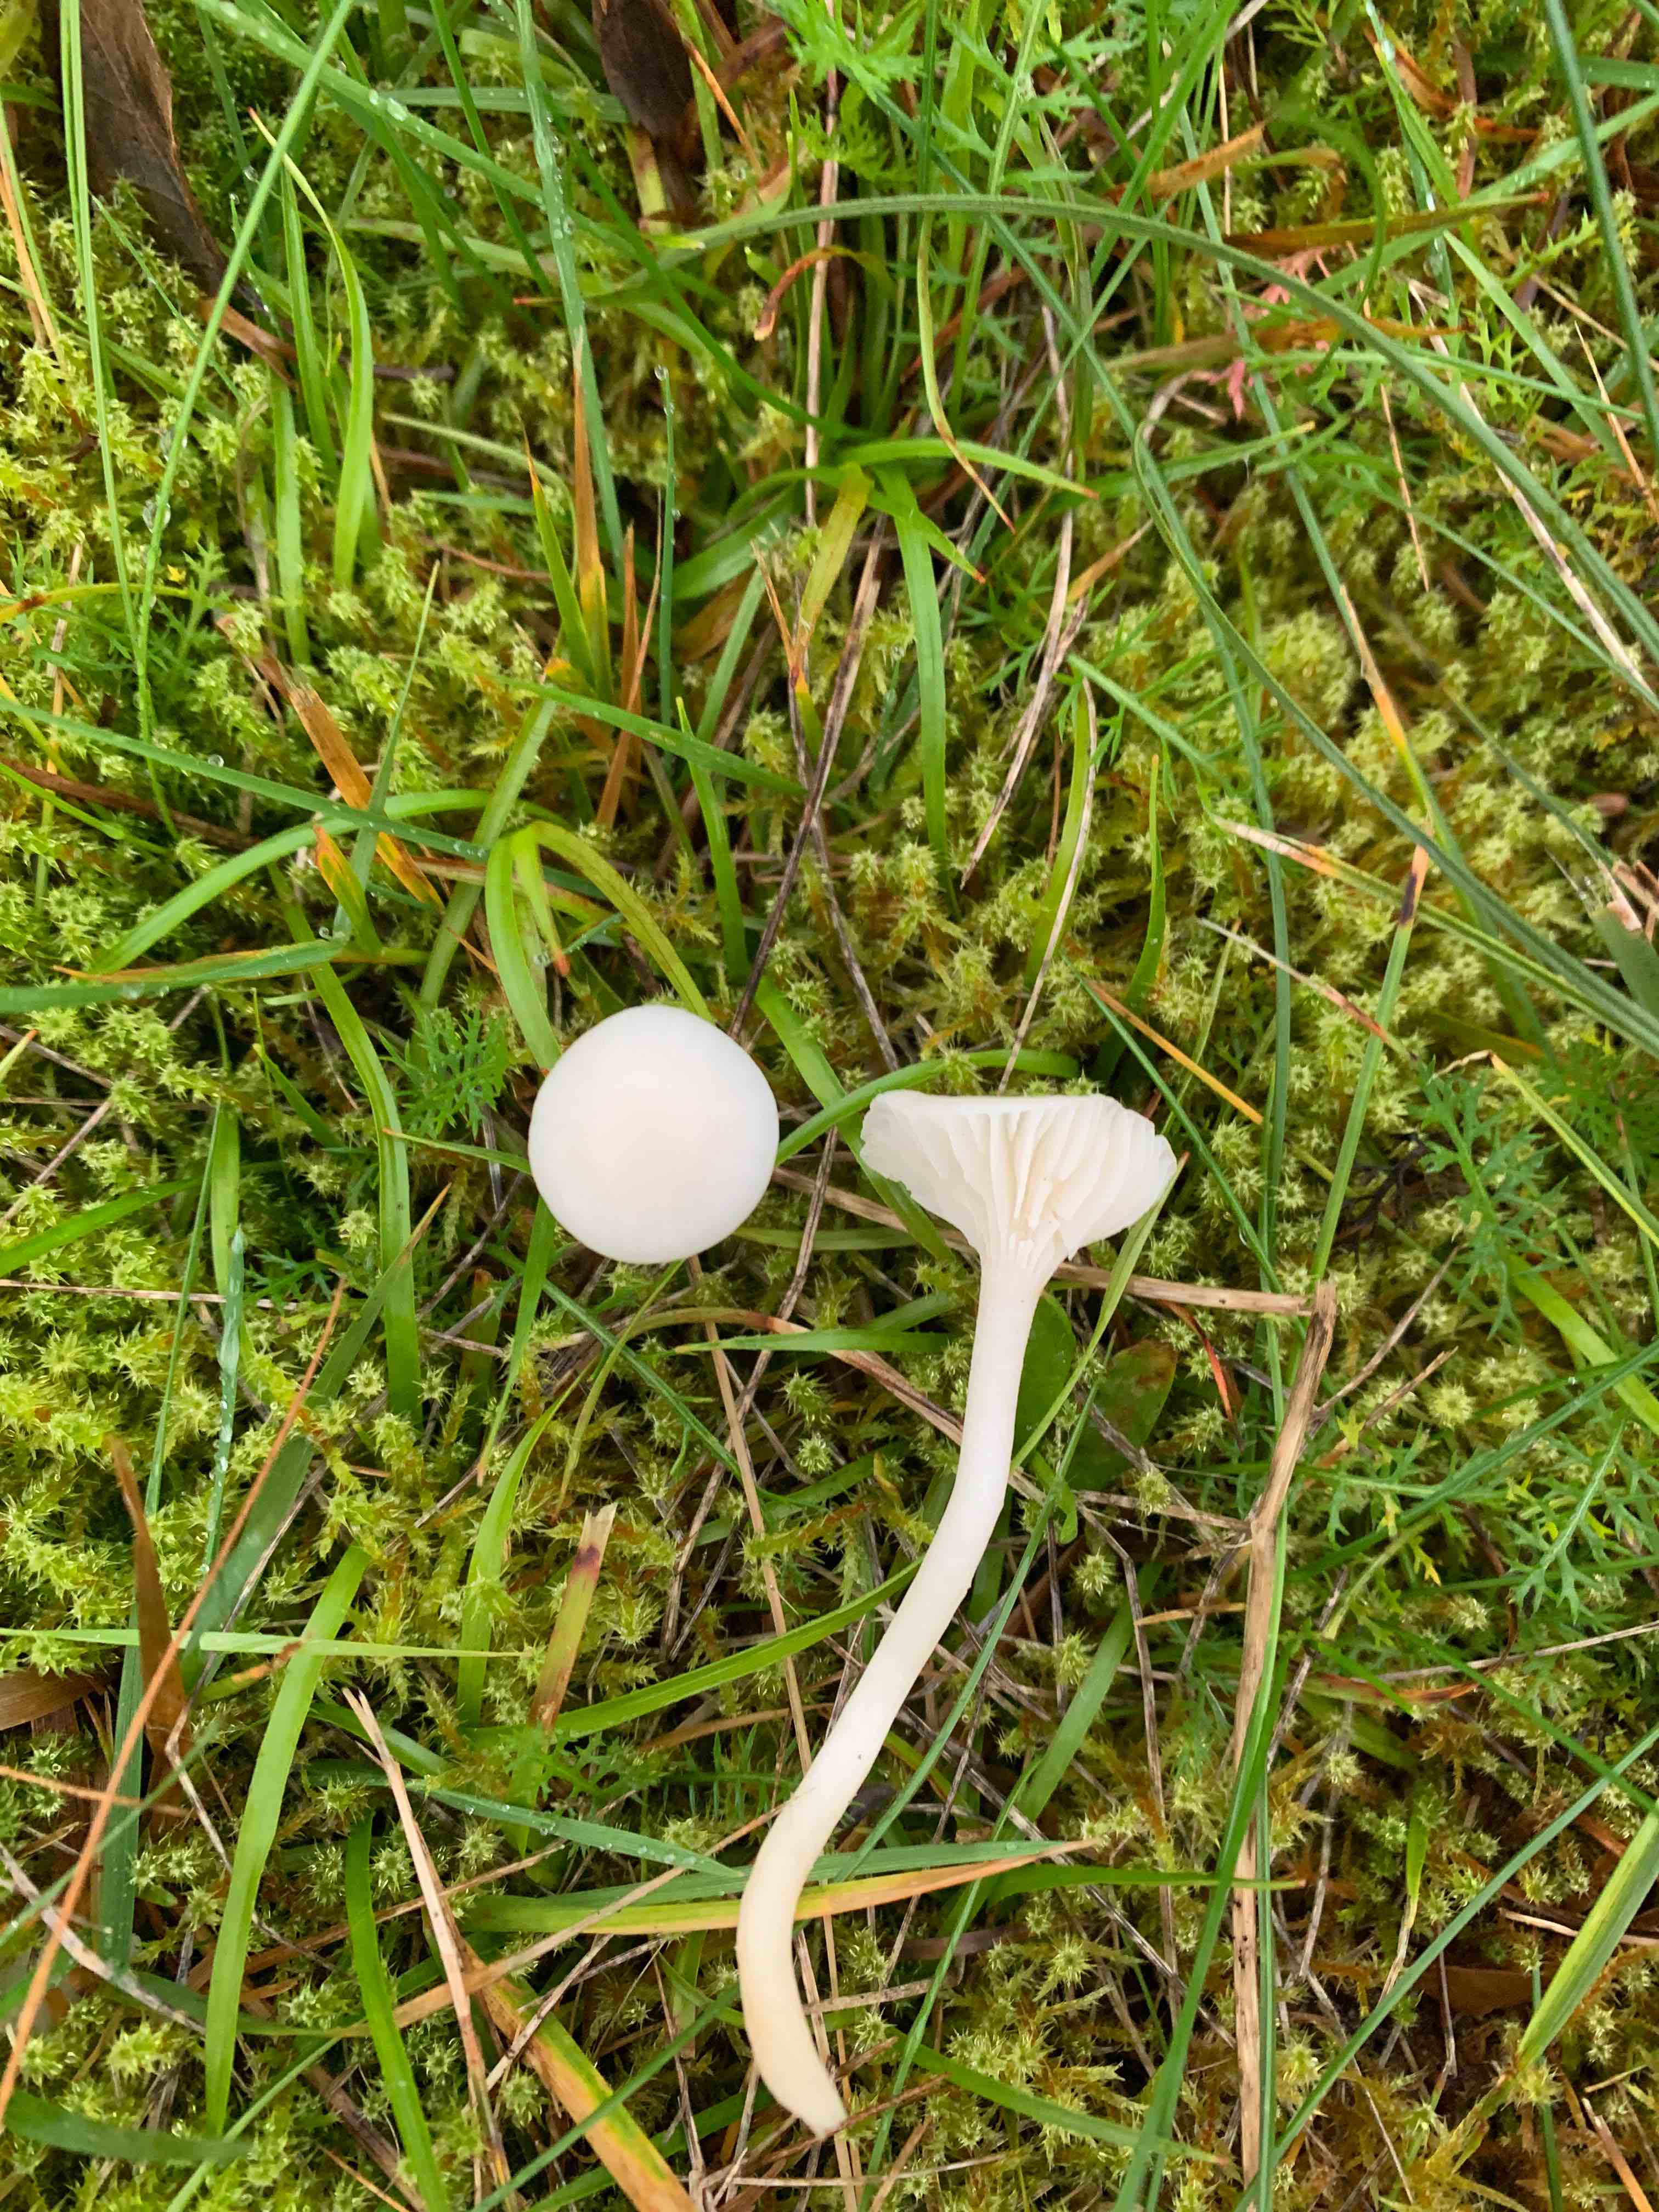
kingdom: Fungi
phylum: Basidiomycota
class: Agaricomycetes
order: Agaricales
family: Hygrophoraceae
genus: Cuphophyllus
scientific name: Cuphophyllus virgineus
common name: snehvid vokshat
